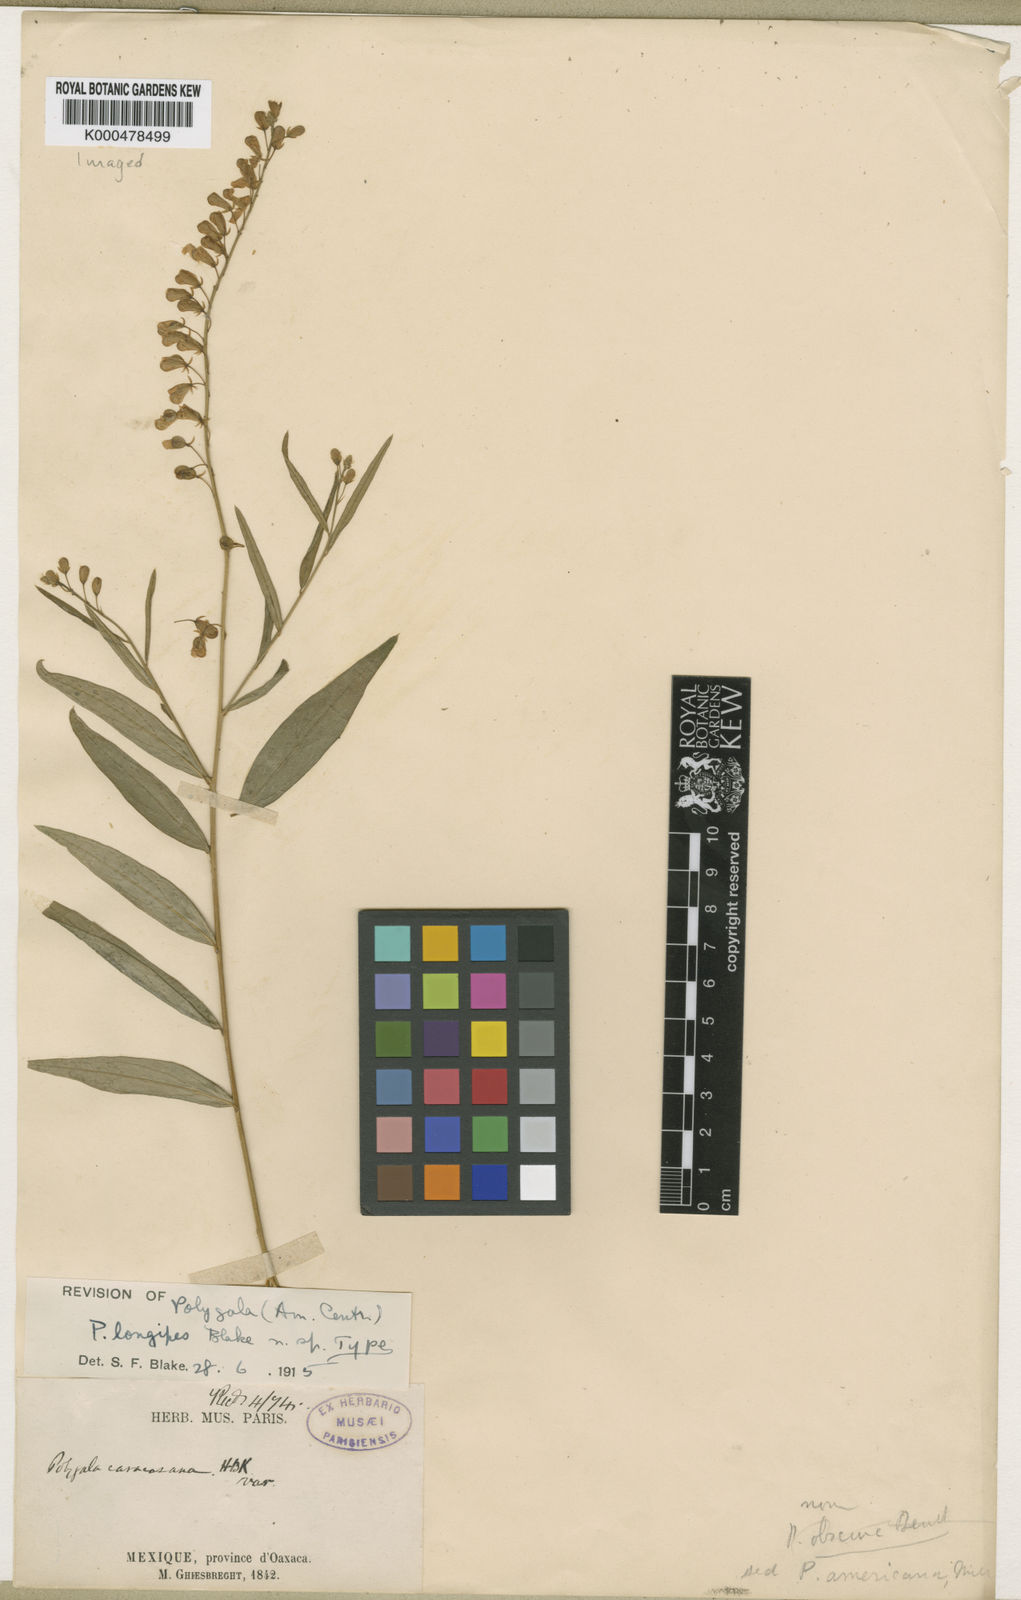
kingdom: Plantae
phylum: Tracheophyta
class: Magnoliopsida
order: Fabales
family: Polygalaceae
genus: Polygala
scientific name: Polygala longipes
